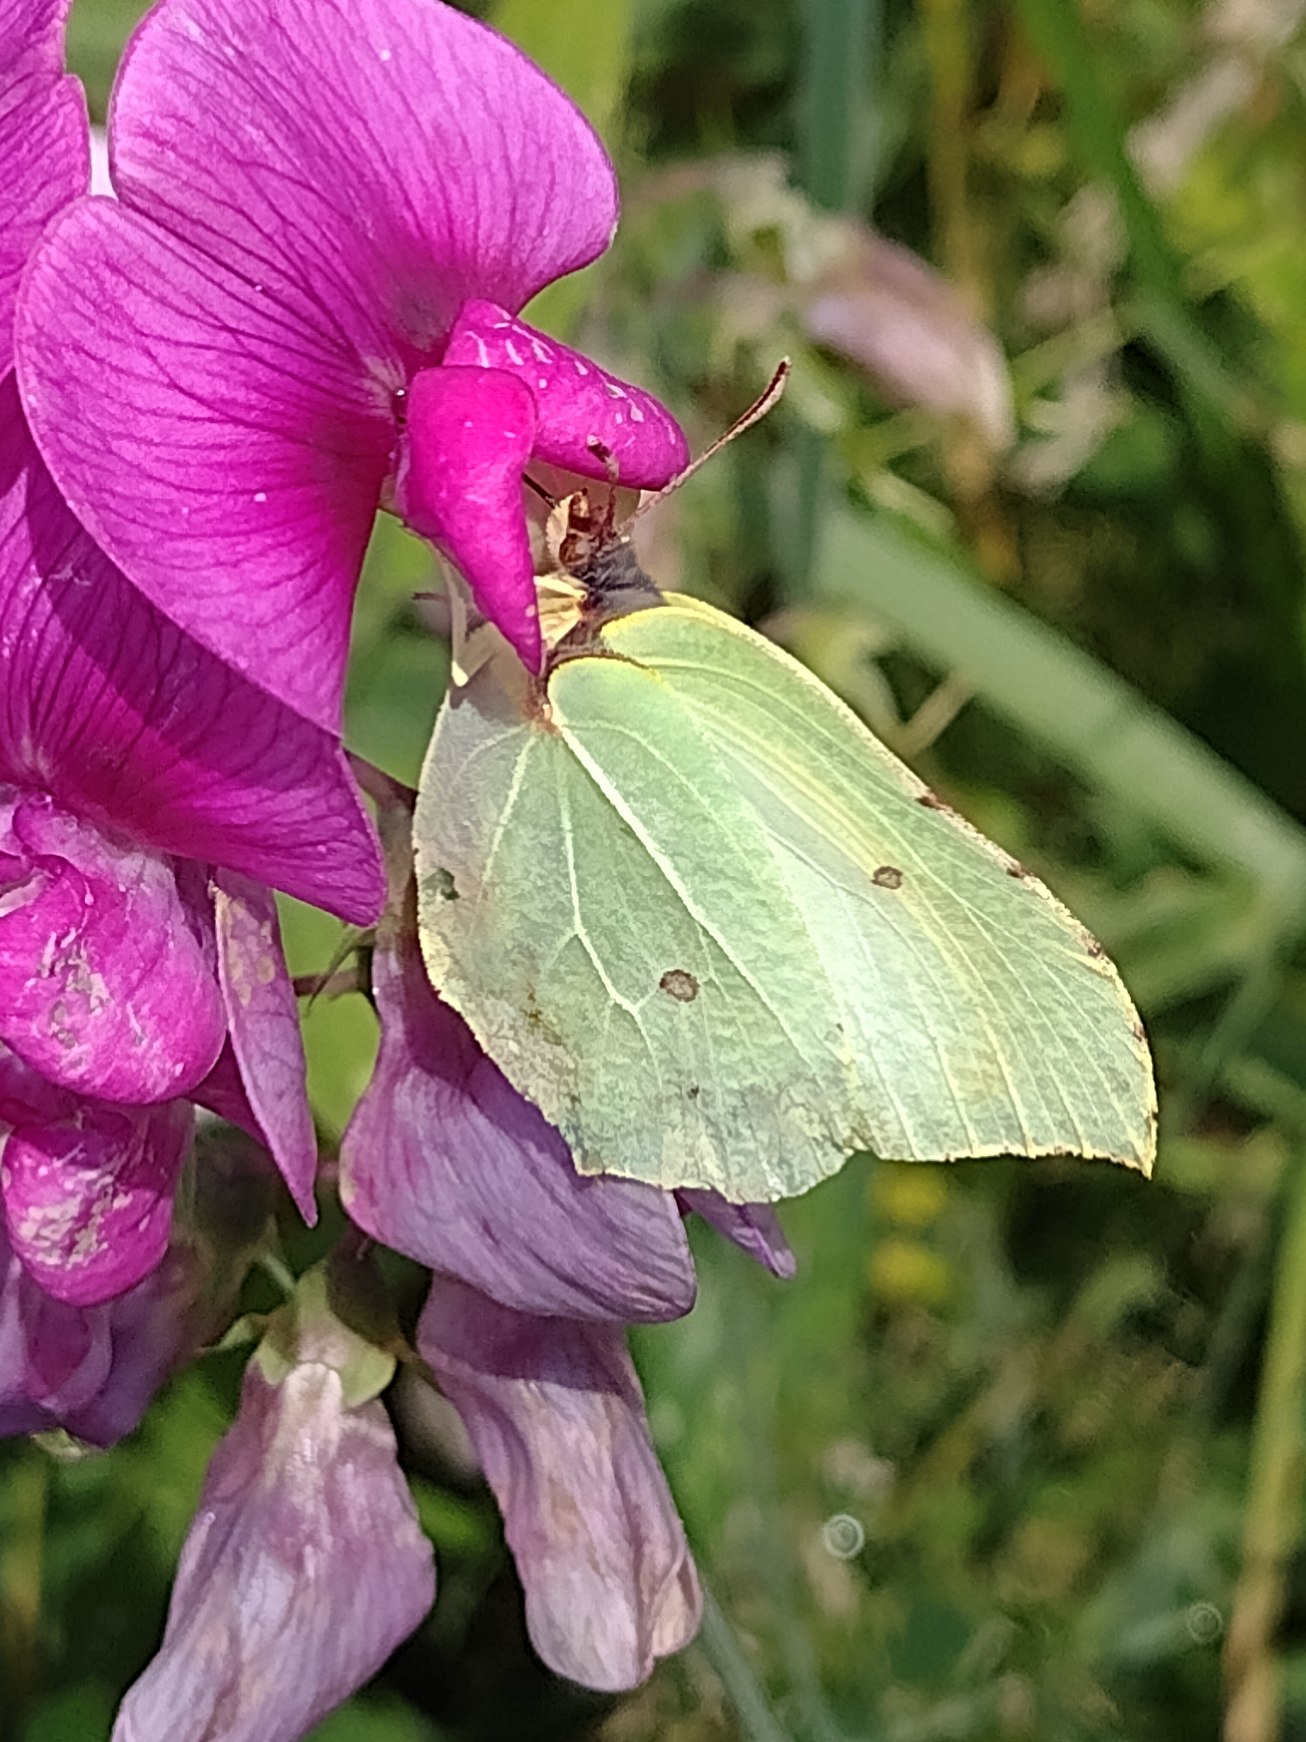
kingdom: Animalia
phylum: Arthropoda
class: Insecta
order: Lepidoptera
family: Pieridae
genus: Gonepteryx
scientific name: Gonepteryx rhamni
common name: Citronsommerfugl
